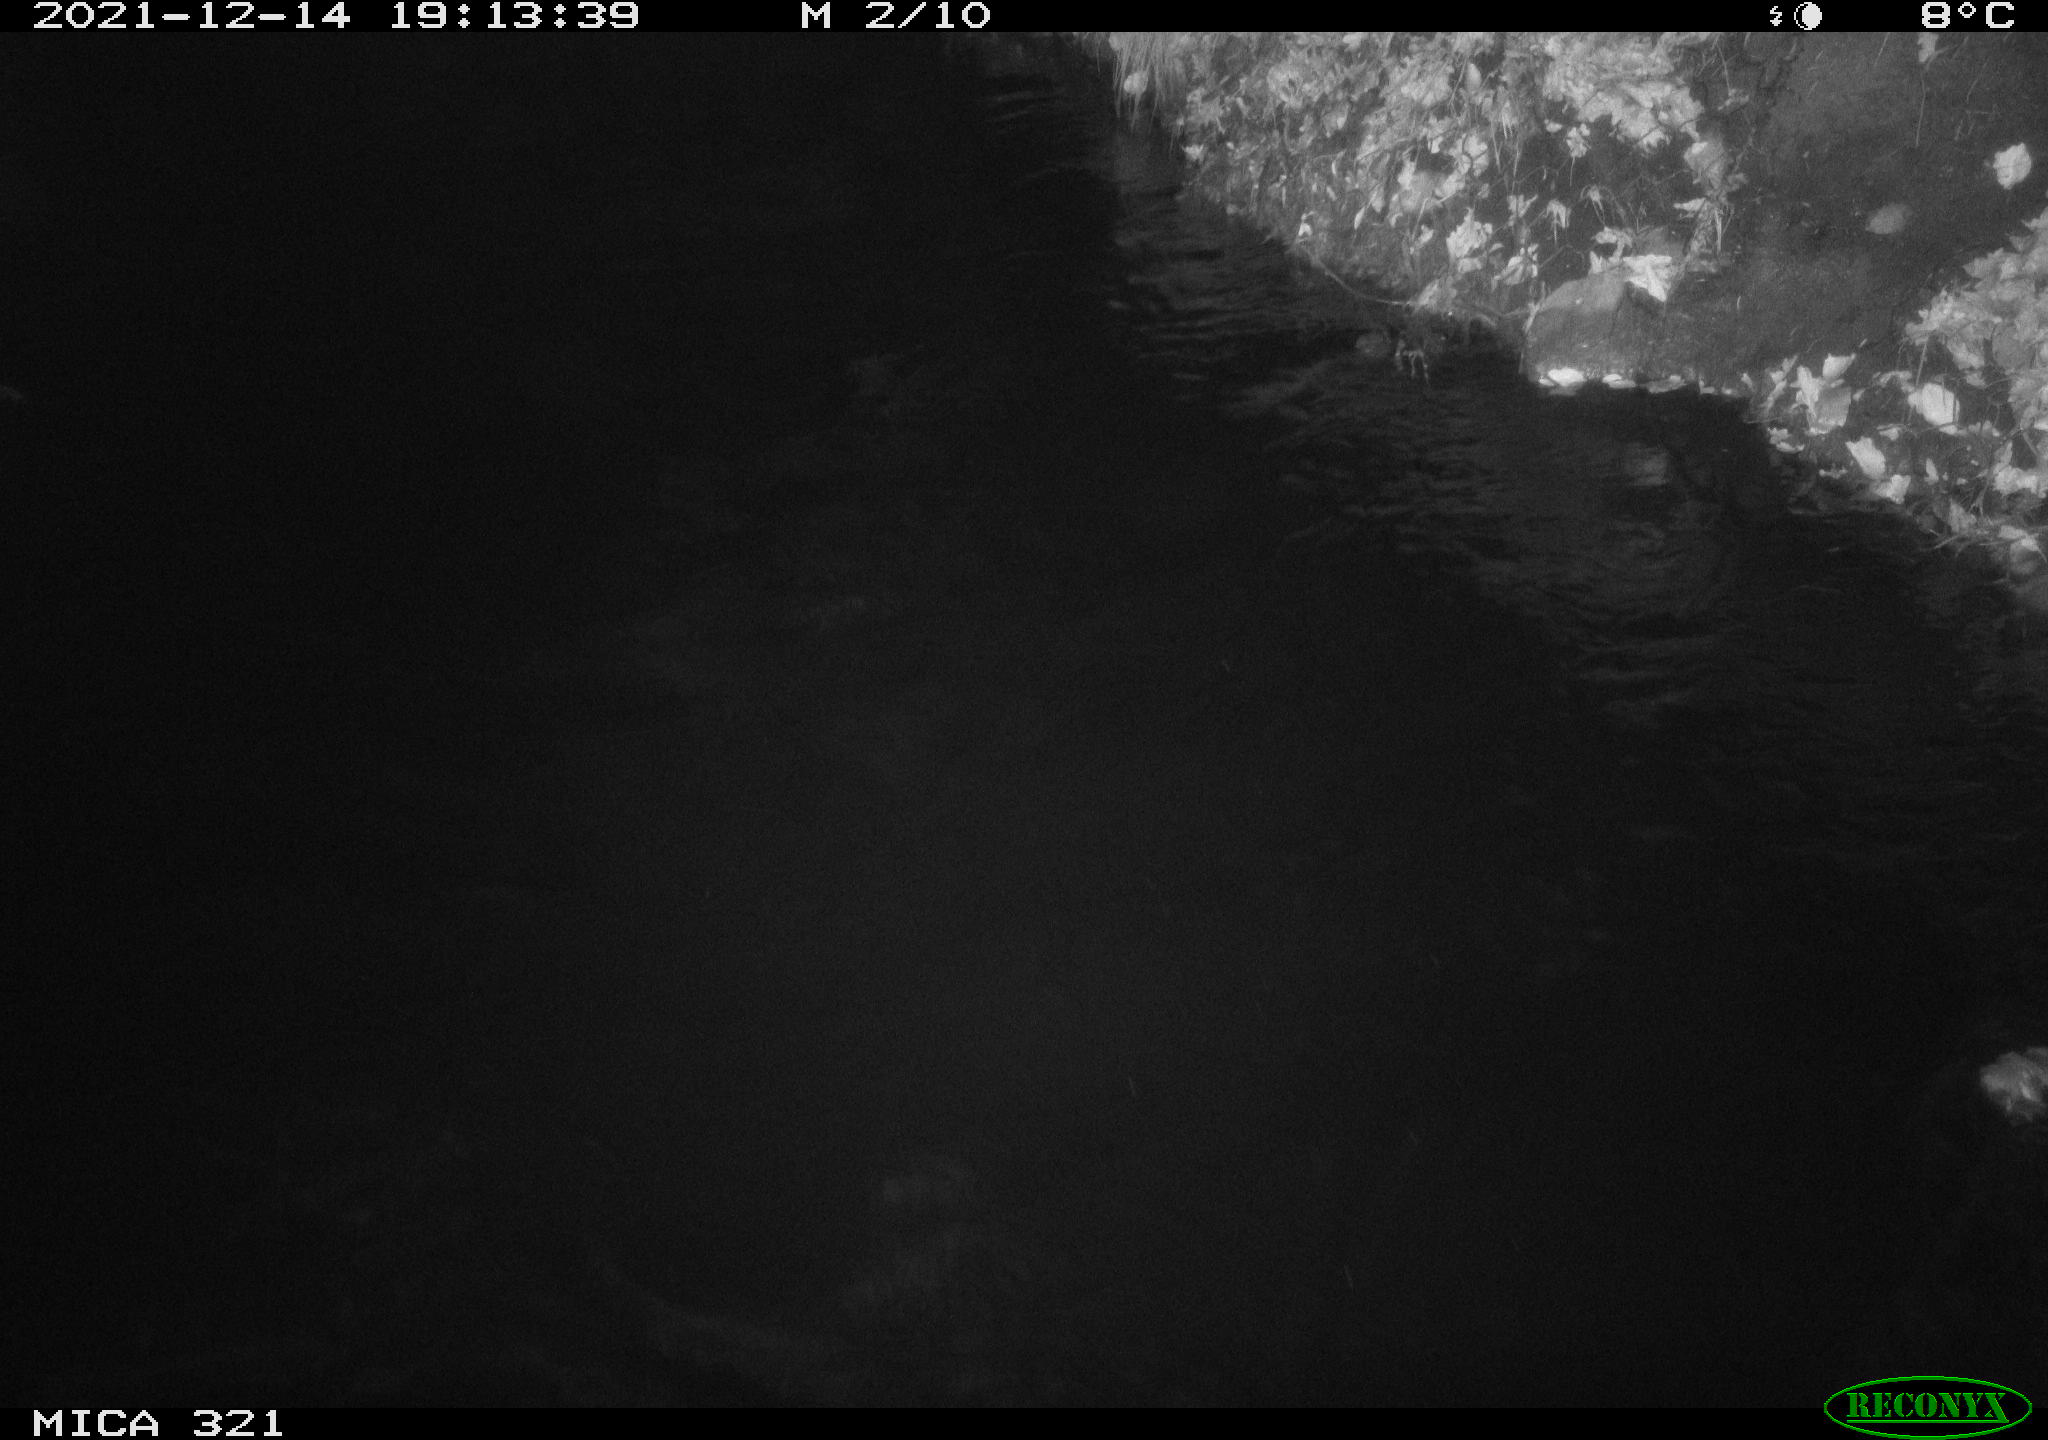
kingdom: Animalia
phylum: Chordata
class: Aves
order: Anseriformes
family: Anatidae
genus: Anas
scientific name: Anas
